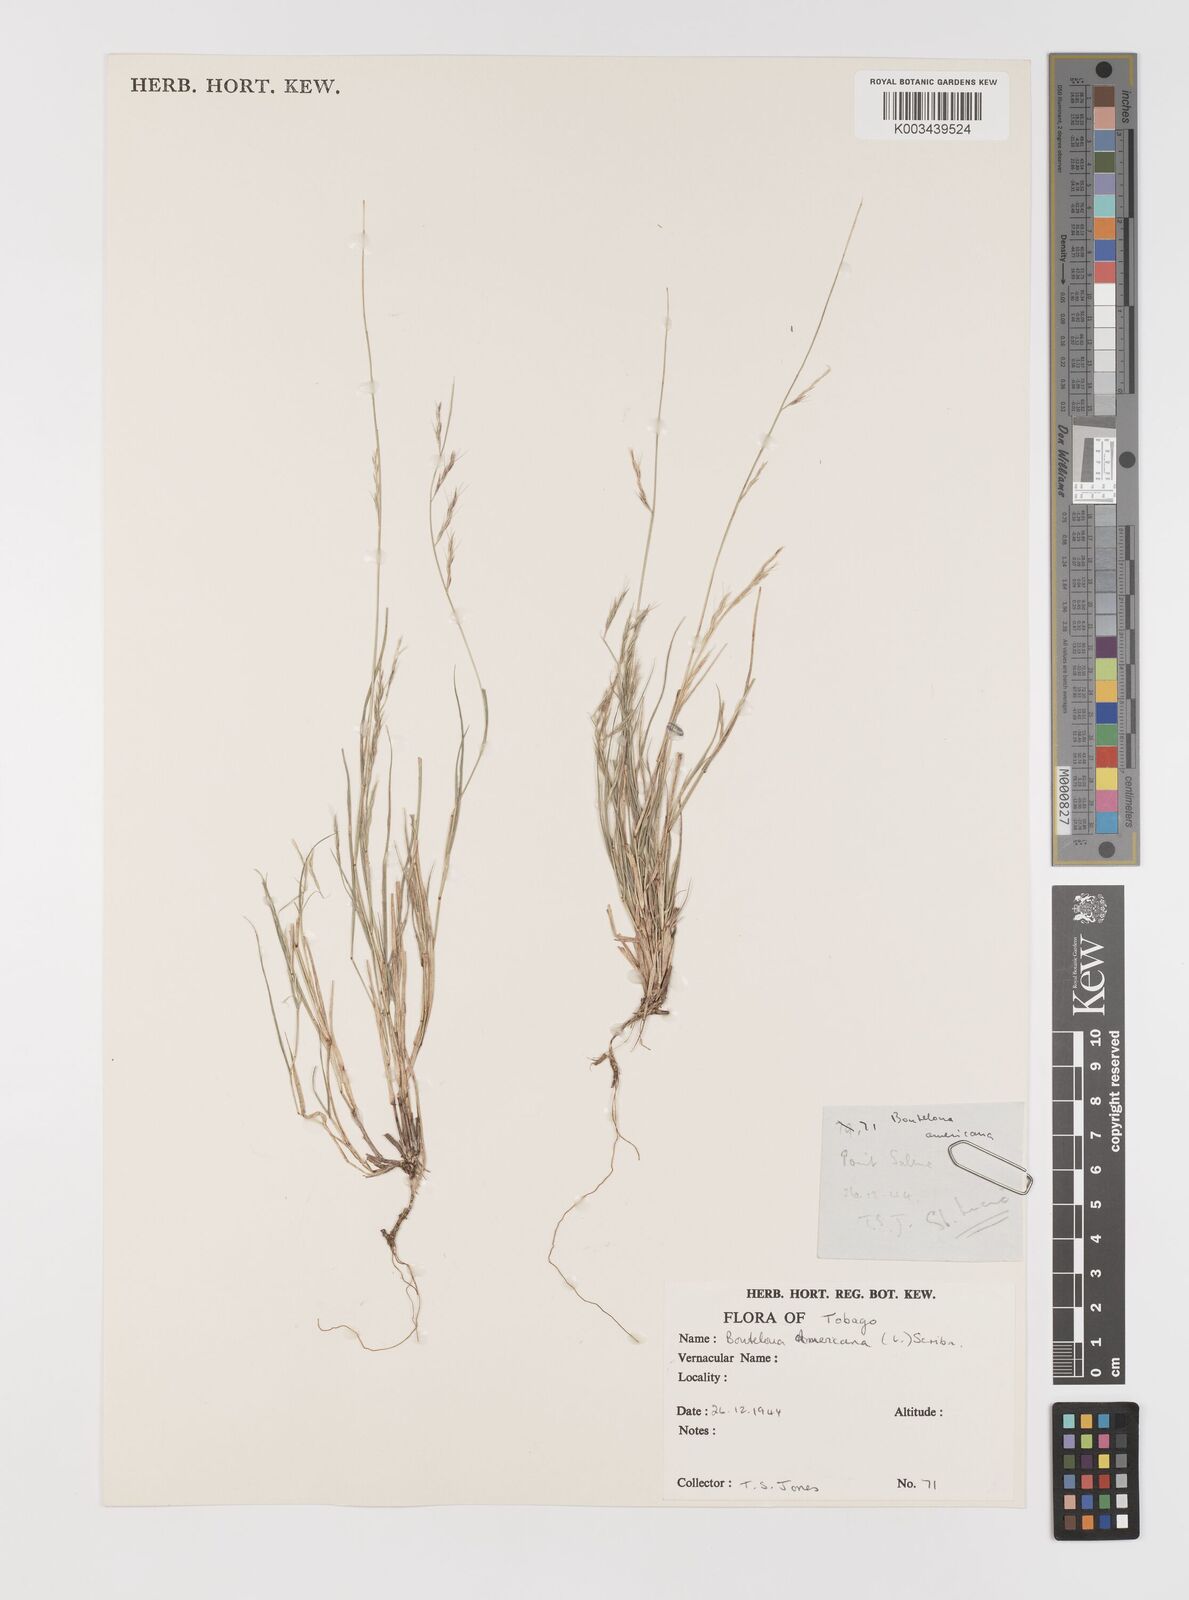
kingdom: Plantae
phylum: Tracheophyta
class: Liliopsida
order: Poales
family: Poaceae
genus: Bouteloua
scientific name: Bouteloua americana
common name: Mule grass
